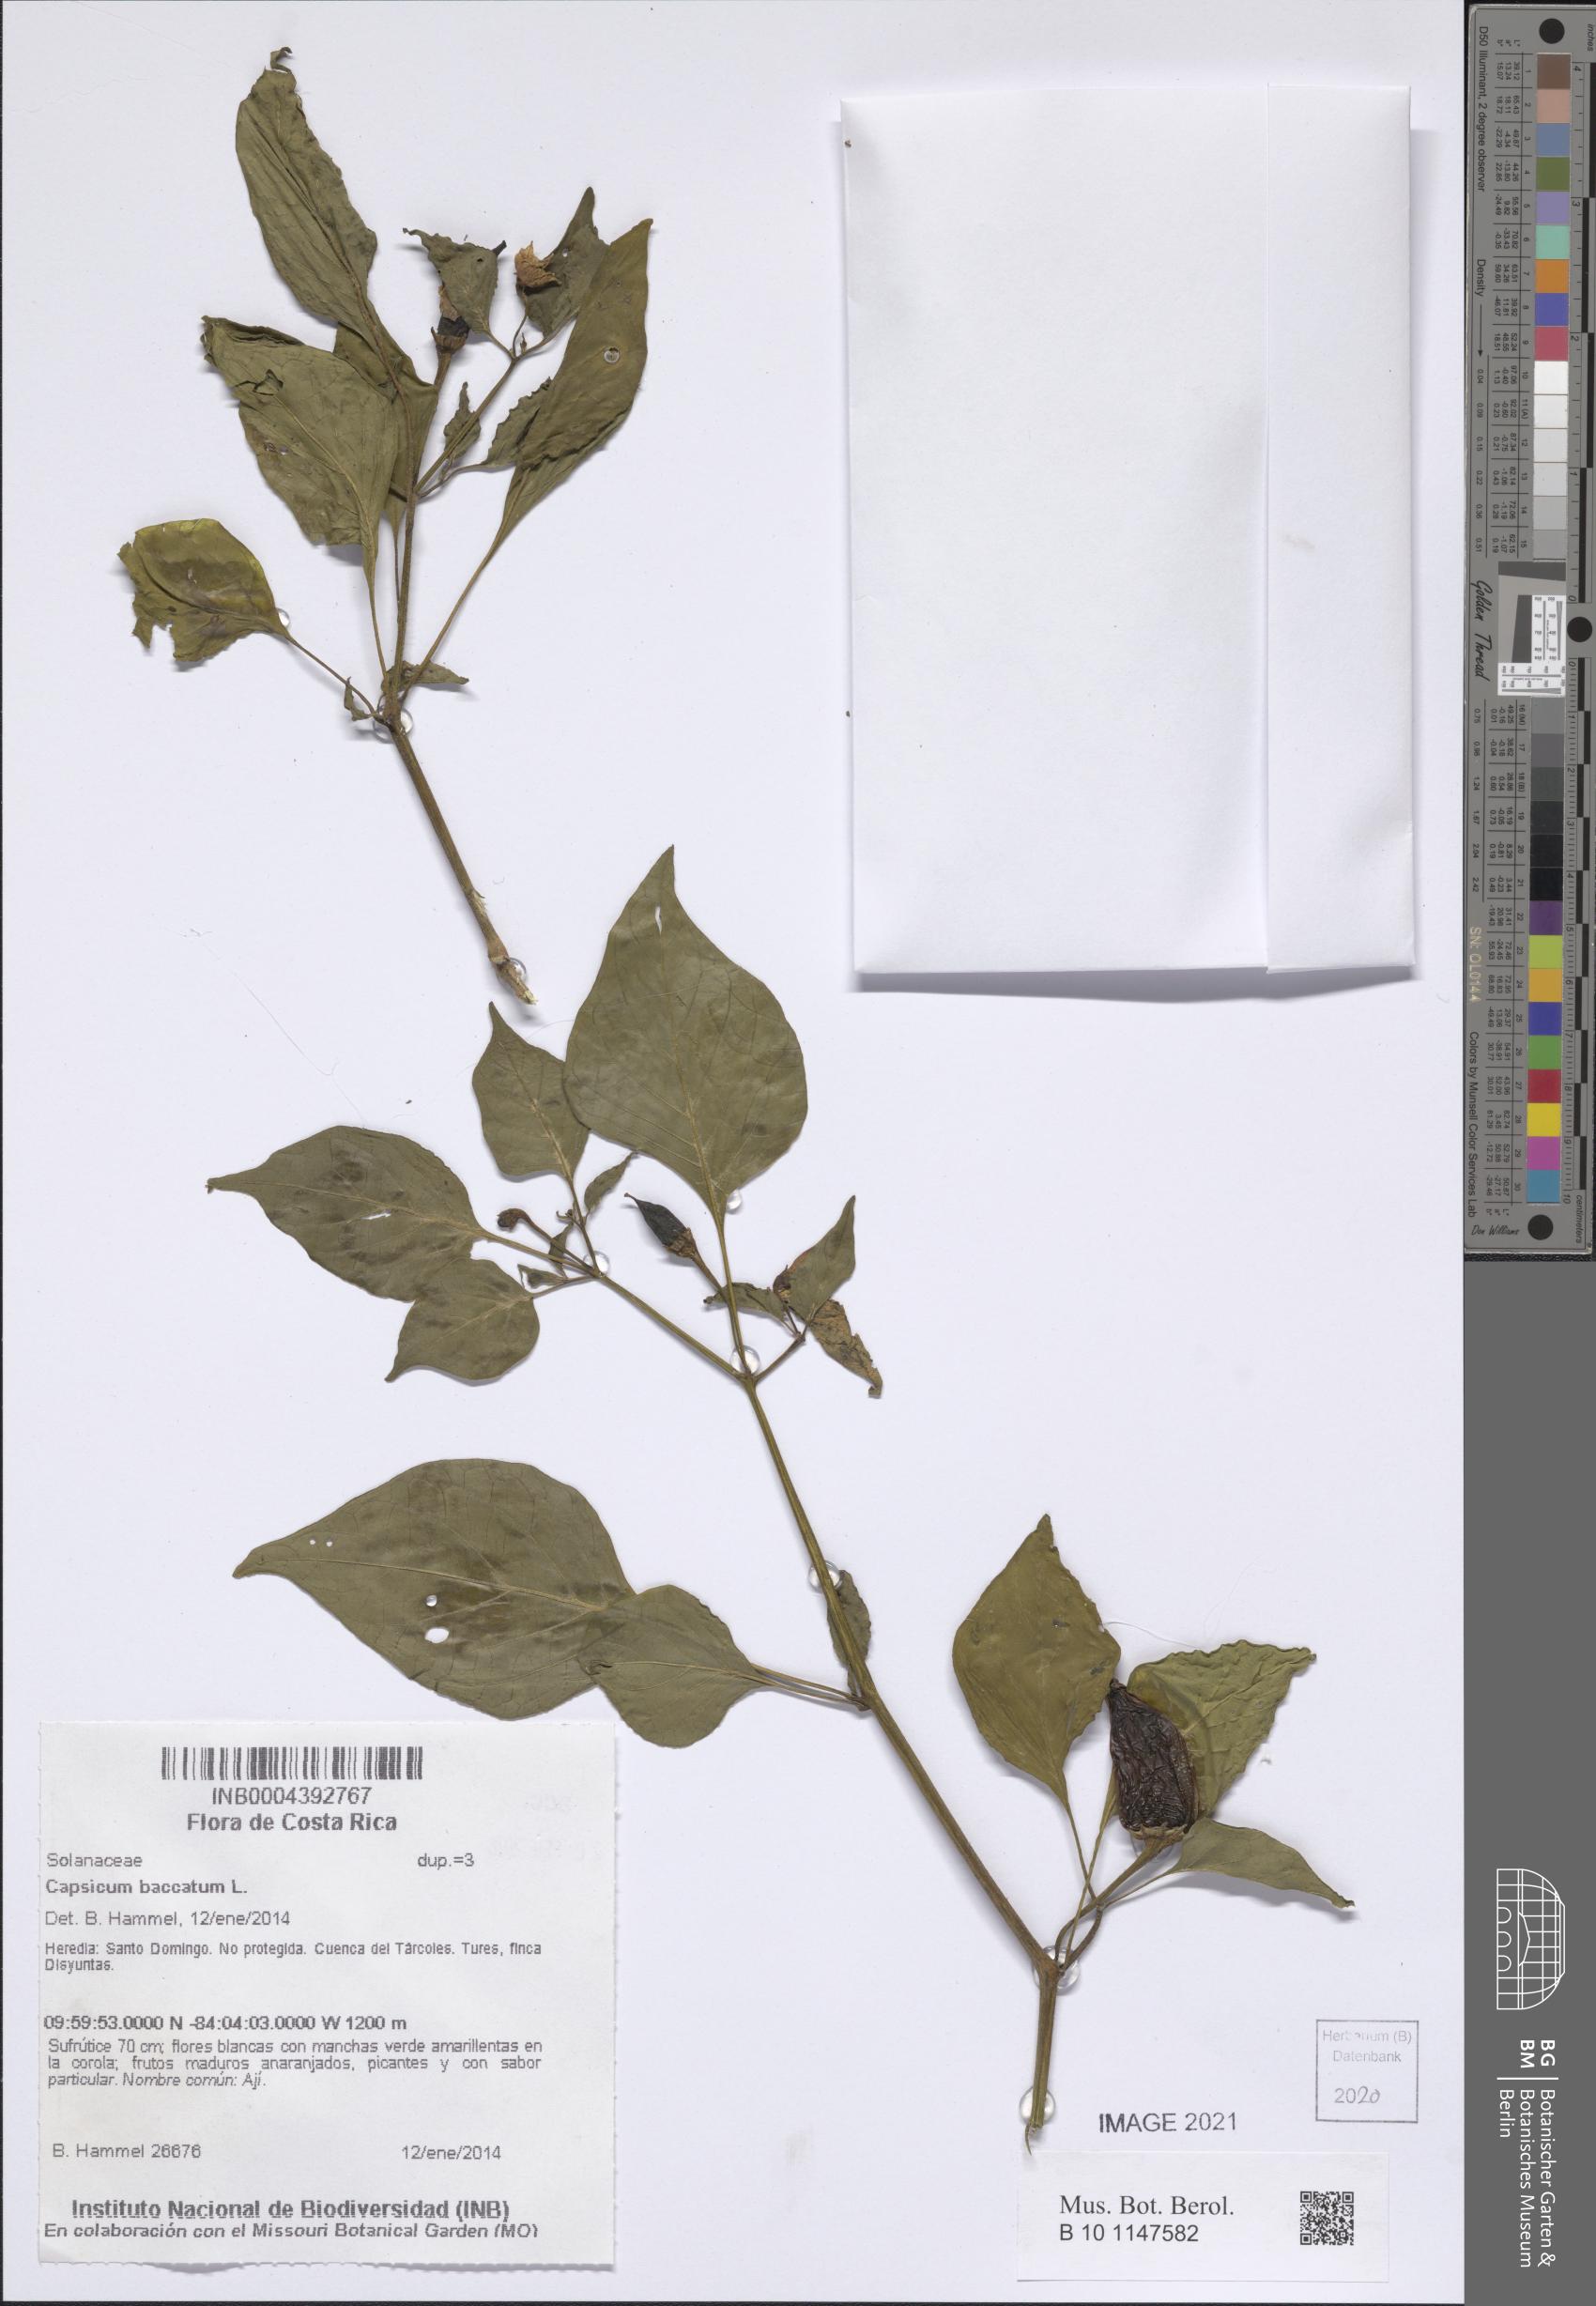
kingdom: Plantae
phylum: Tracheophyta
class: Magnoliopsida
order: Solanales
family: Solanaceae
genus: Capsicum
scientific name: Capsicum baccatum
